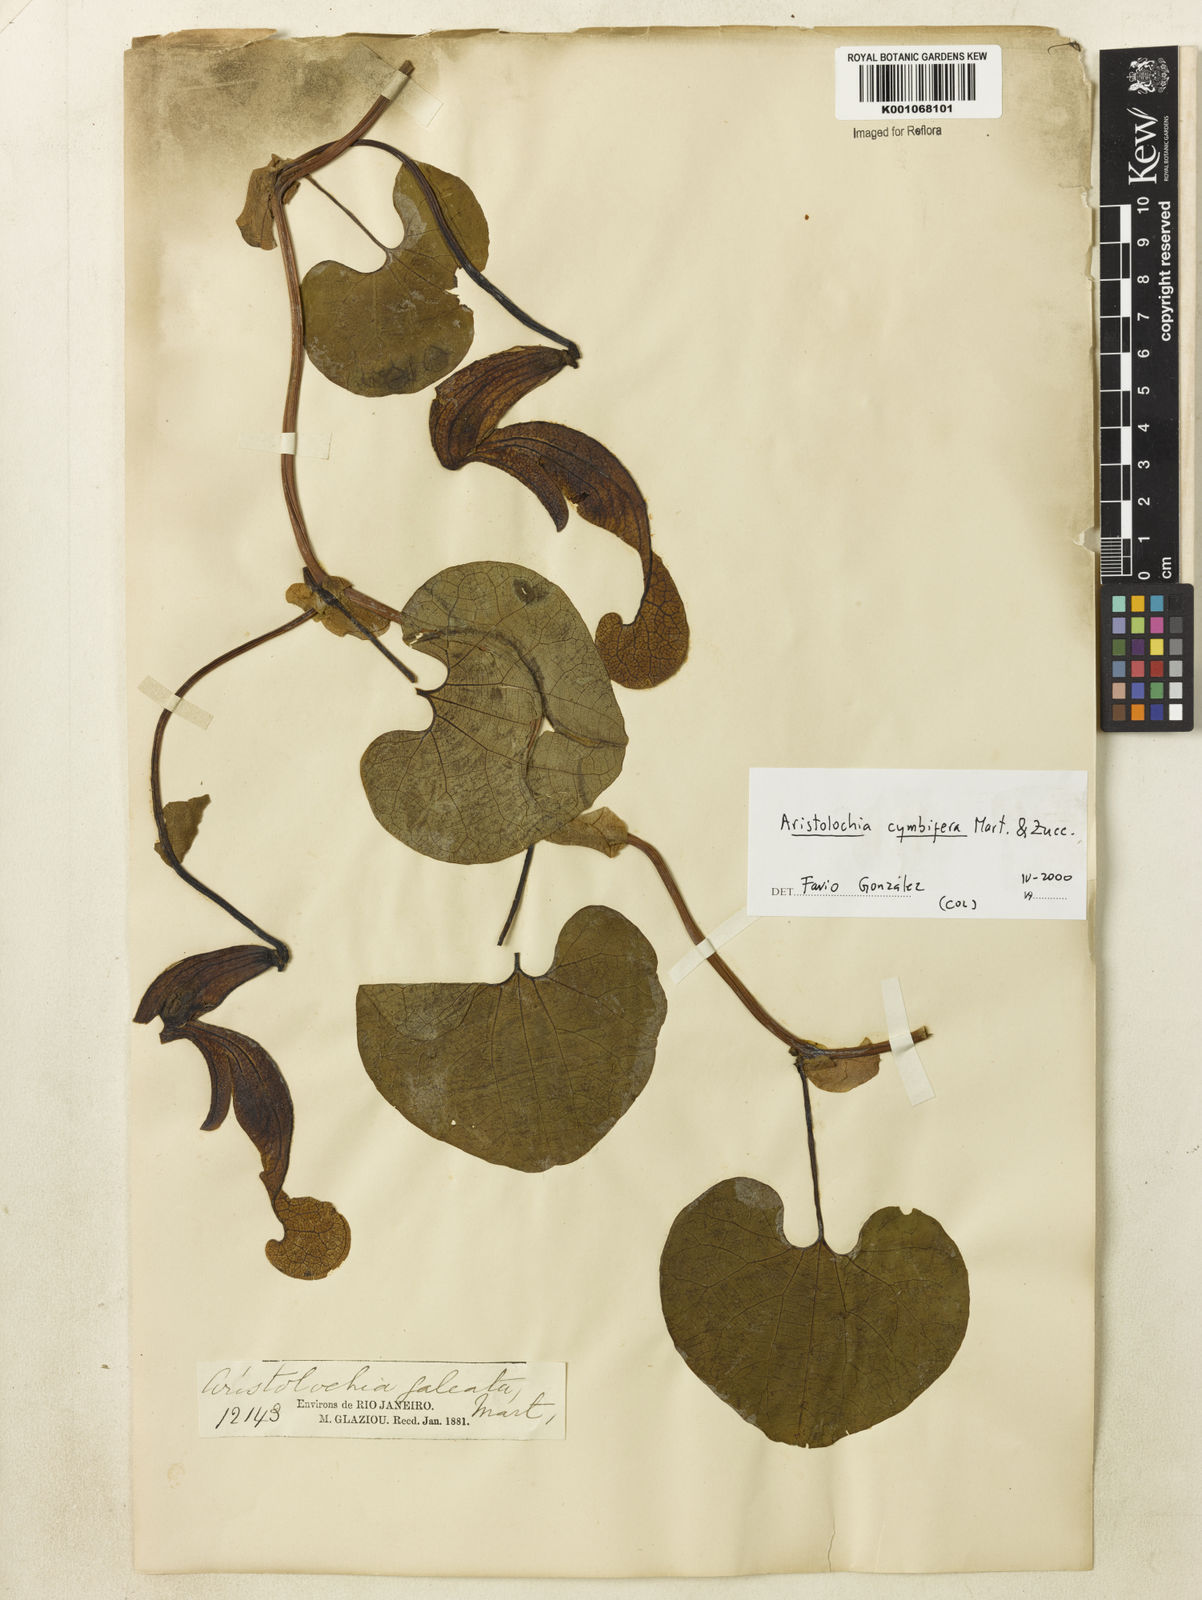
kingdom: Plantae
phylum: Tracheophyta
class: Magnoliopsida
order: Piperales
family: Aristolochiaceae
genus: Aristolochia
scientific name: Aristolochia cymbifera
